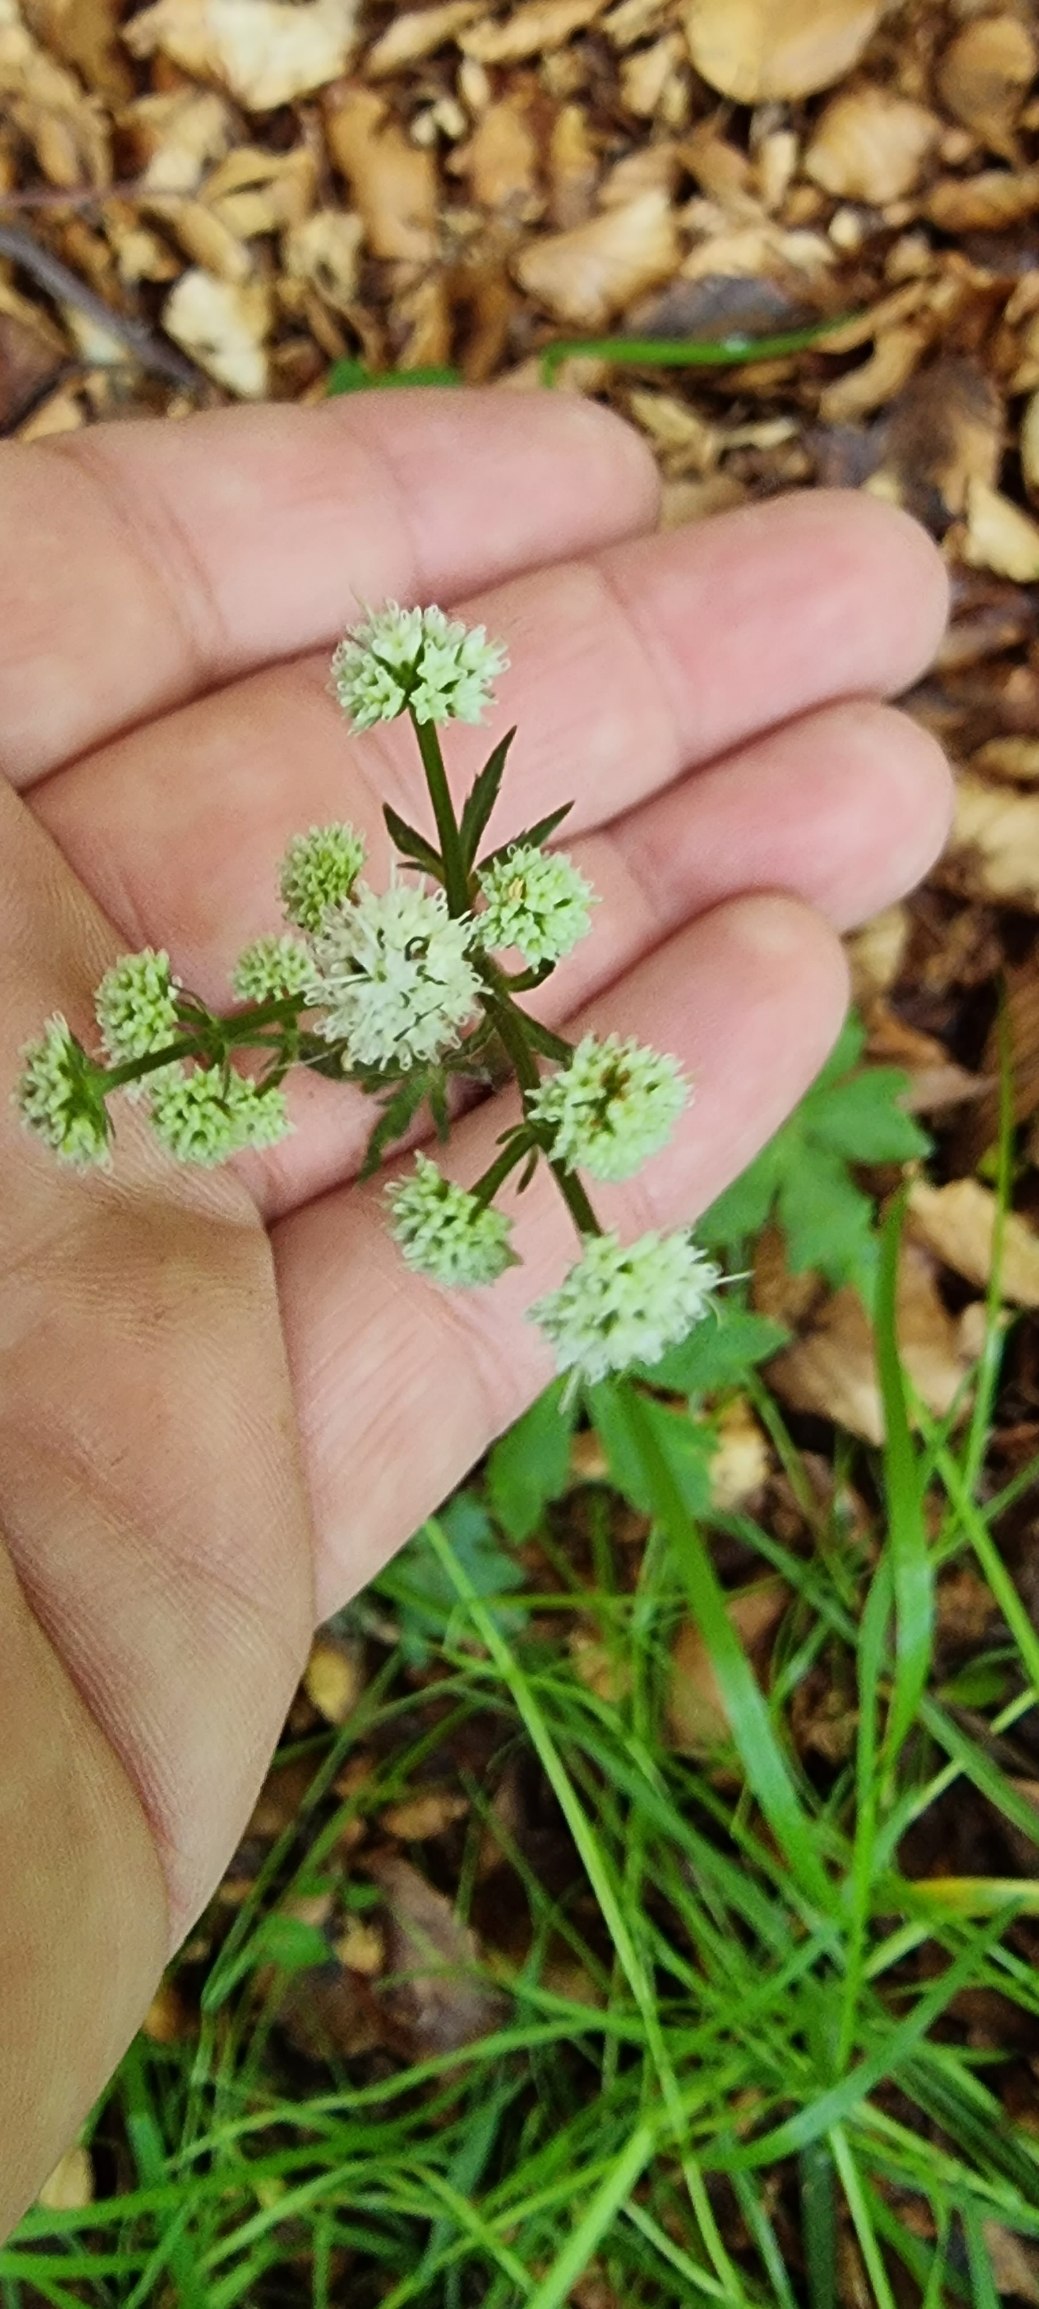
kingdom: Plantae
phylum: Tracheophyta
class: Magnoliopsida
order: Apiales
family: Apiaceae
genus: Sanicula
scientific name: Sanicula europaea
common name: Sanikel
